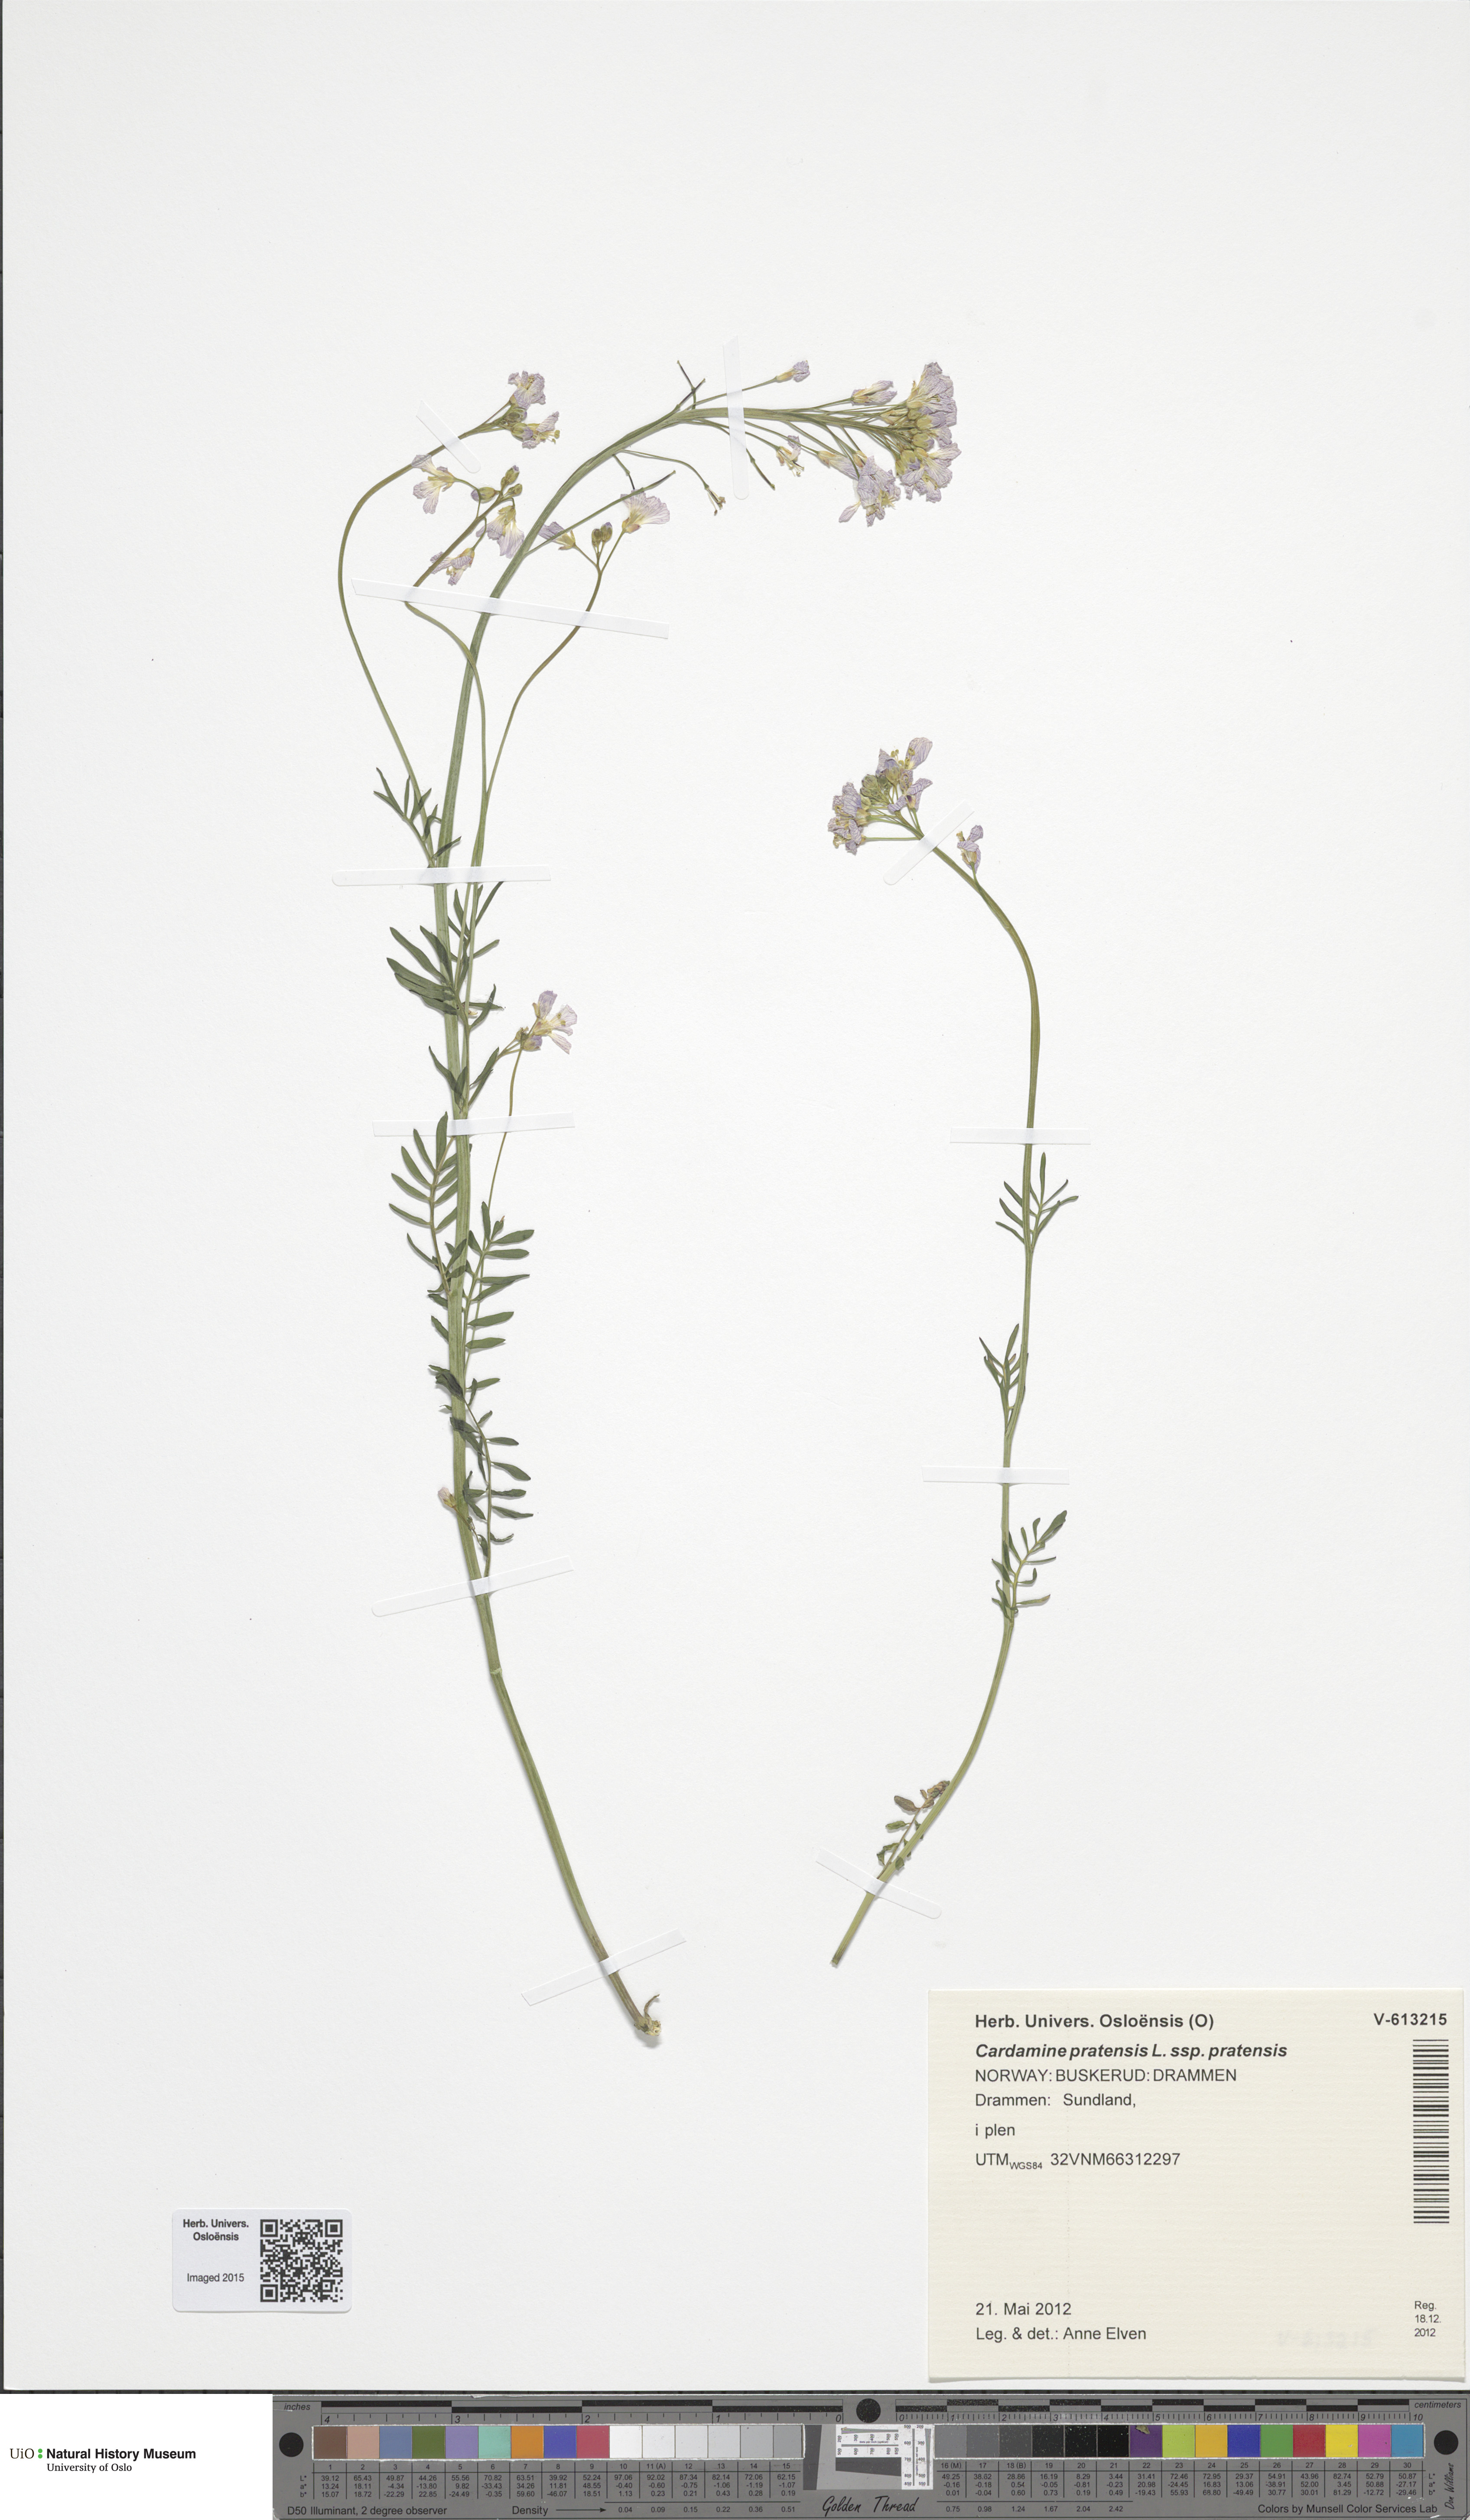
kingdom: Plantae
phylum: Tracheophyta
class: Magnoliopsida
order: Brassicales
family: Brassicaceae
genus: Cardamine
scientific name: Cardamine pratensis
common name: Cuckoo flower
